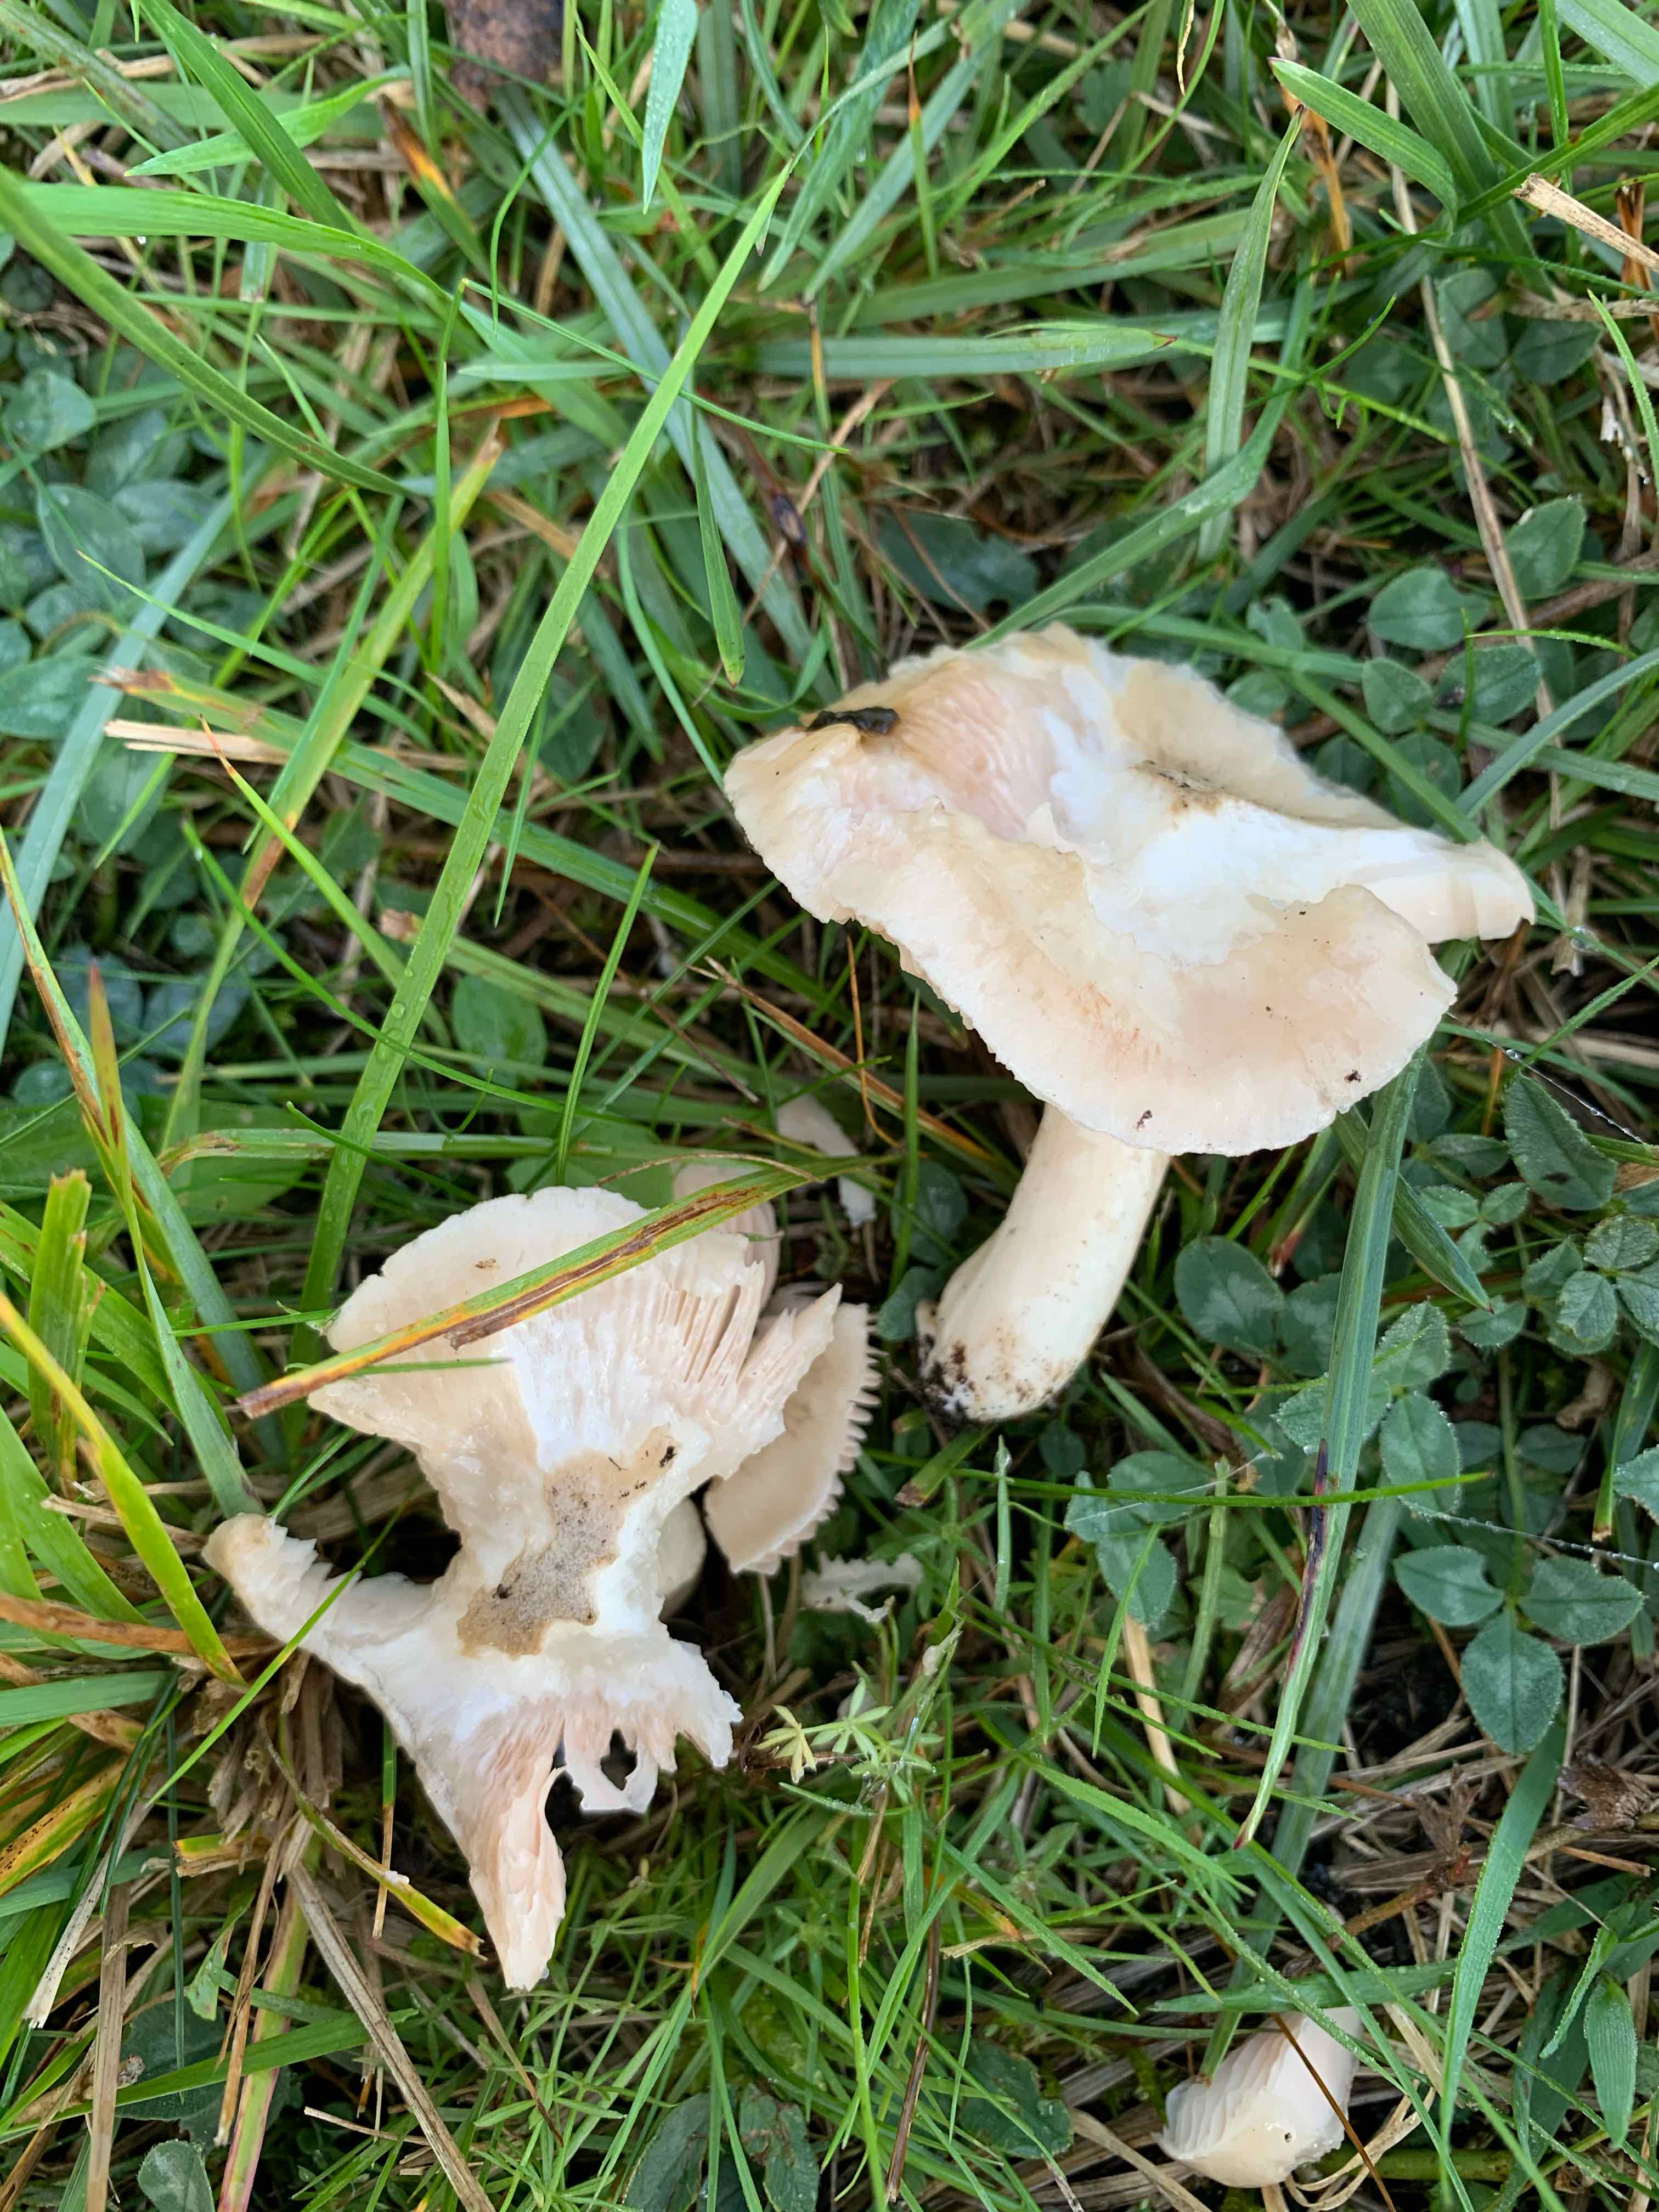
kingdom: Fungi
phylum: Basidiomycota
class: Agaricomycetes
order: Agaricales
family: Entolomataceae
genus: Entoloma
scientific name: Entoloma prunuloides
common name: mel-rødblad
